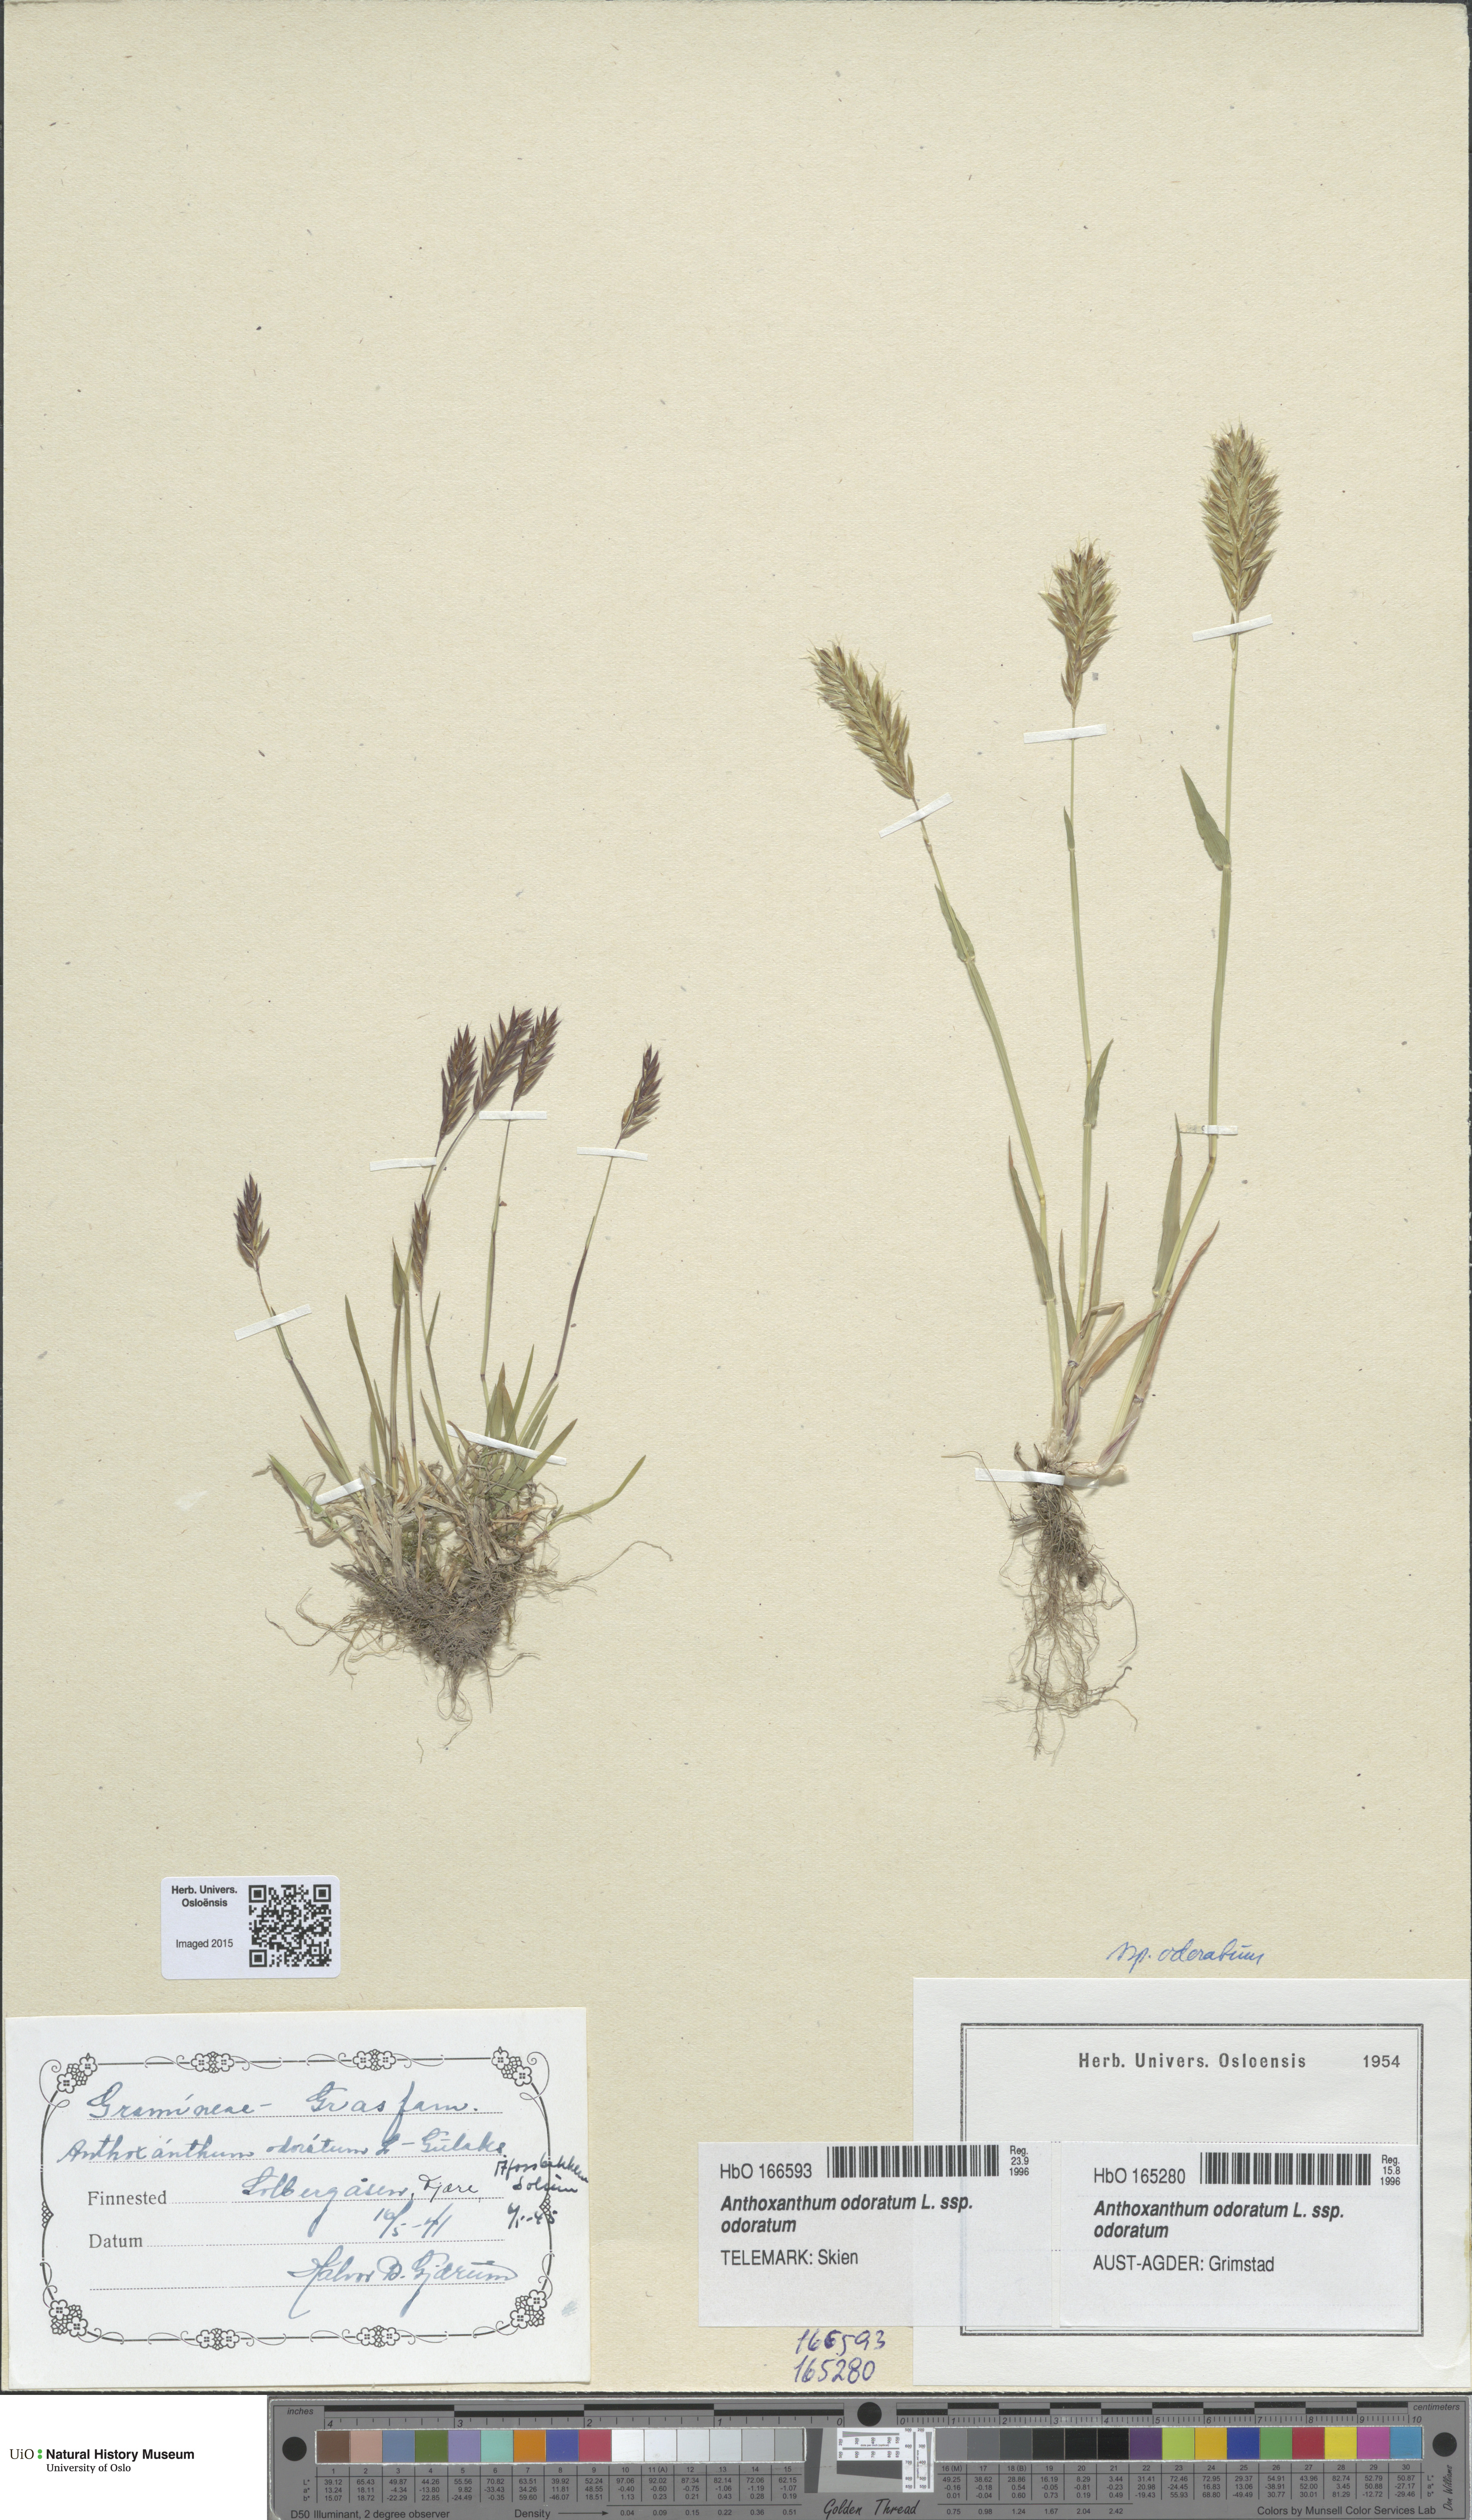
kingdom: Plantae
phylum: Tracheophyta
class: Liliopsida
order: Poales
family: Poaceae
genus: Anthoxanthum
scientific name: Anthoxanthum odoratum
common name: Sweet vernalgrass
